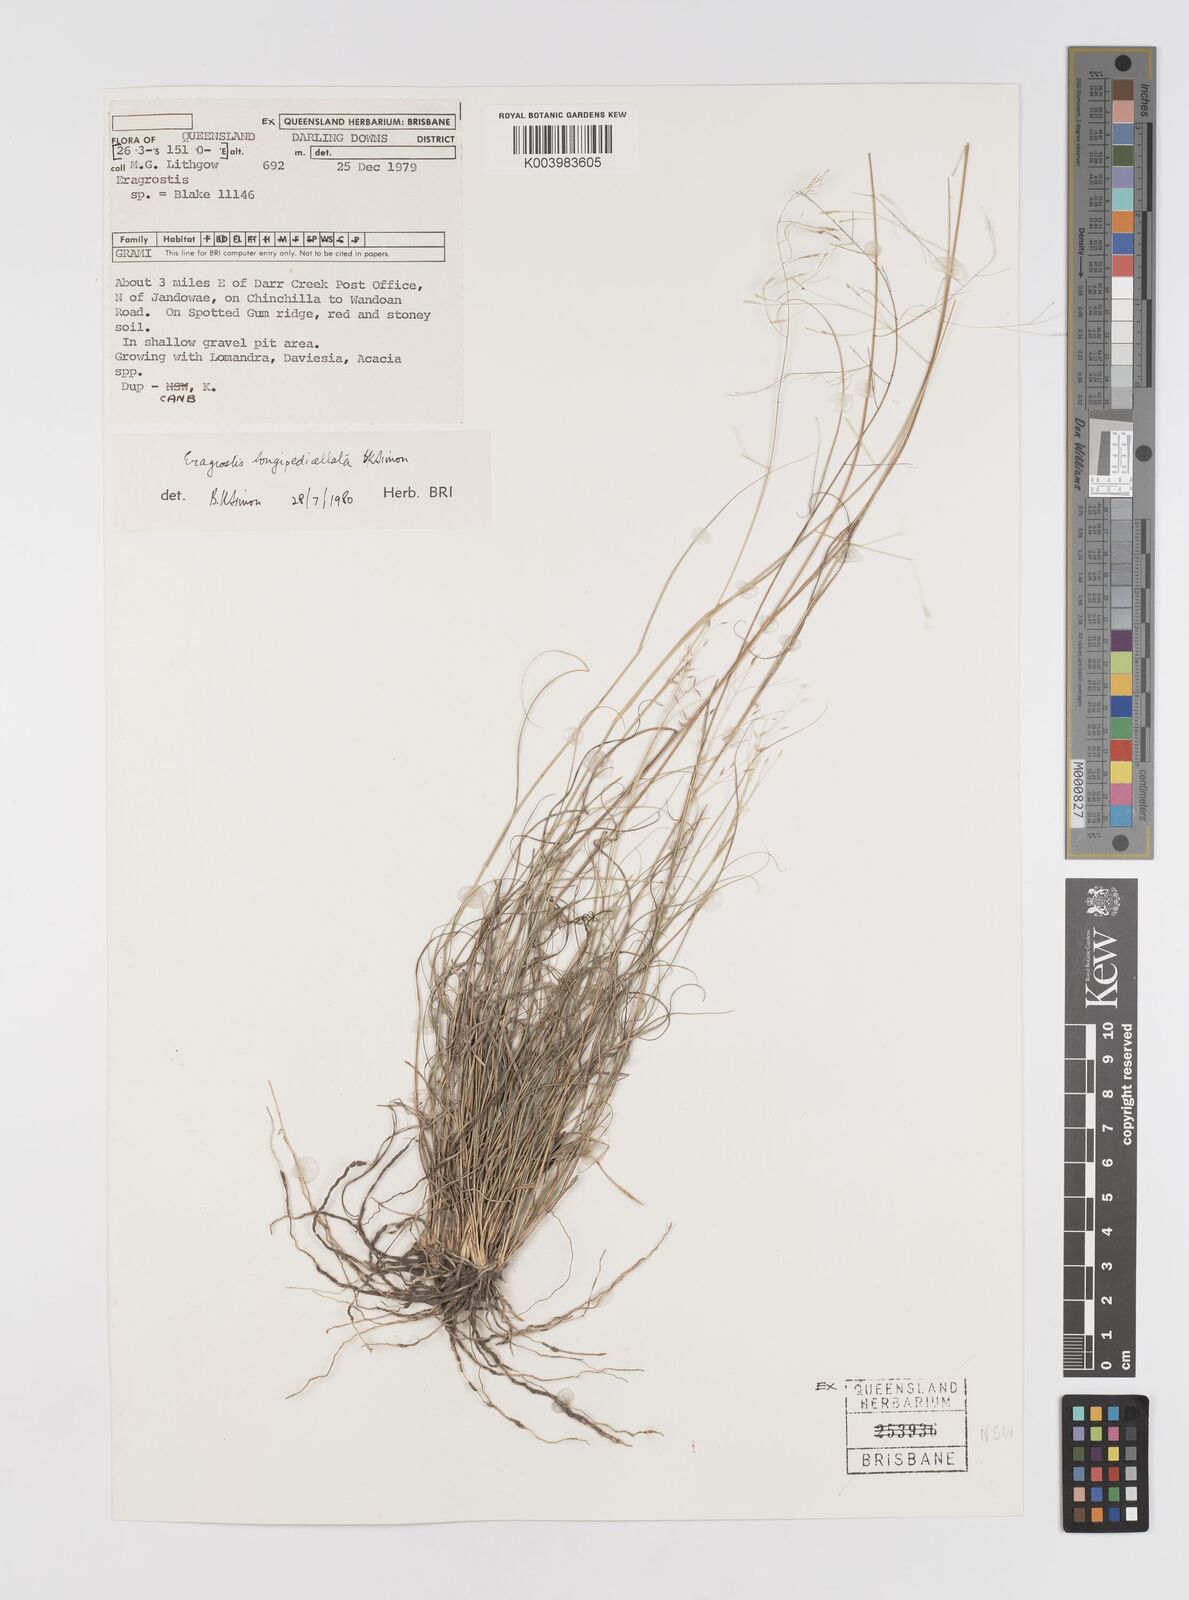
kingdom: Plantae
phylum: Tracheophyta
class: Liliopsida
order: Poales
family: Poaceae
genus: Eragrostis
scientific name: Eragrostis longipedicellata
